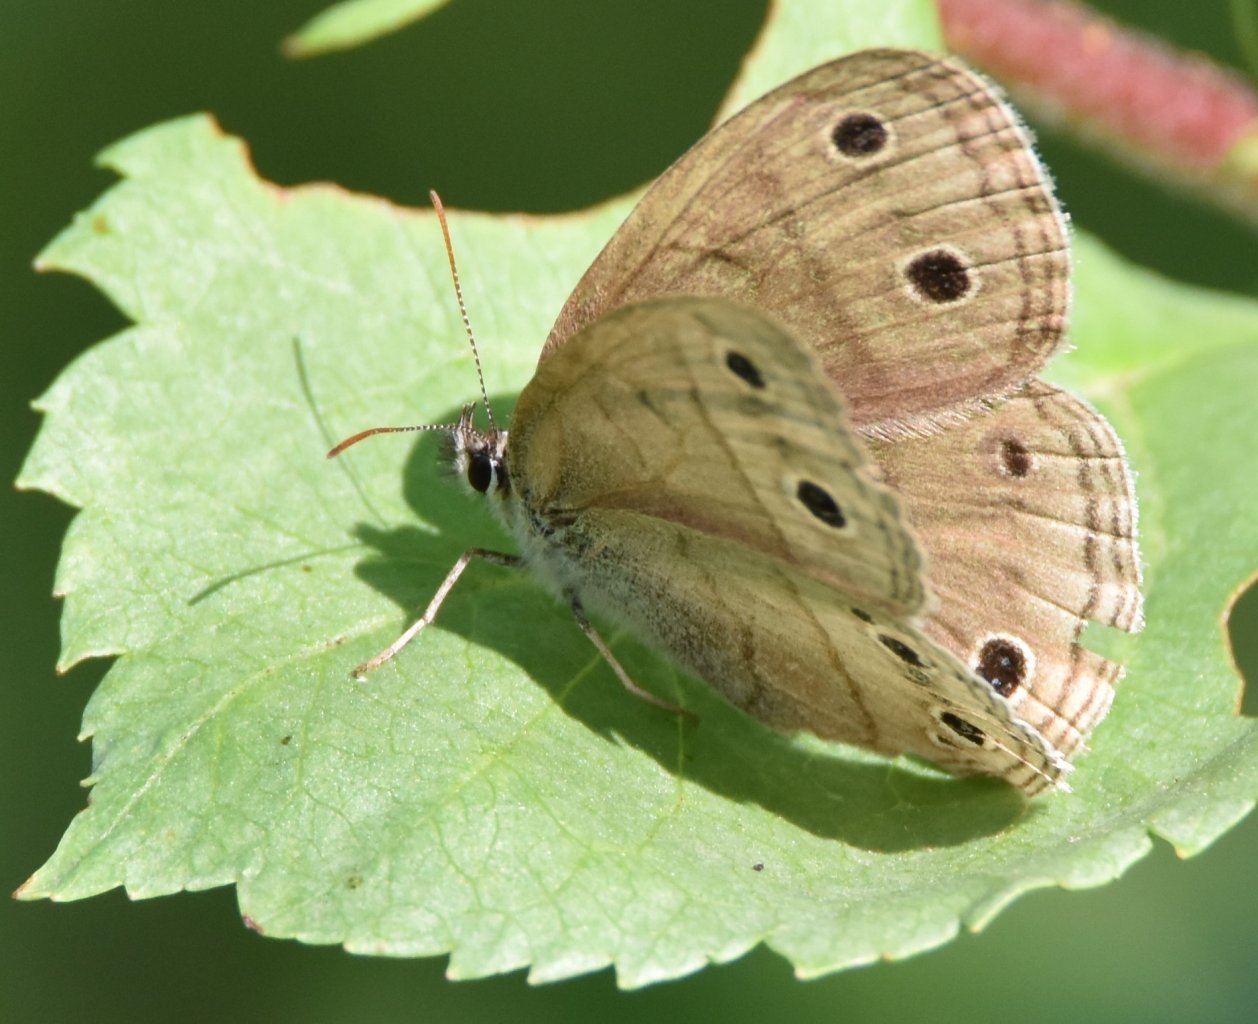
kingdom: Animalia
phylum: Arthropoda
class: Insecta
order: Lepidoptera
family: Nymphalidae
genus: Euptychia
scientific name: Euptychia cymela
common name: Little Wood Satyr
